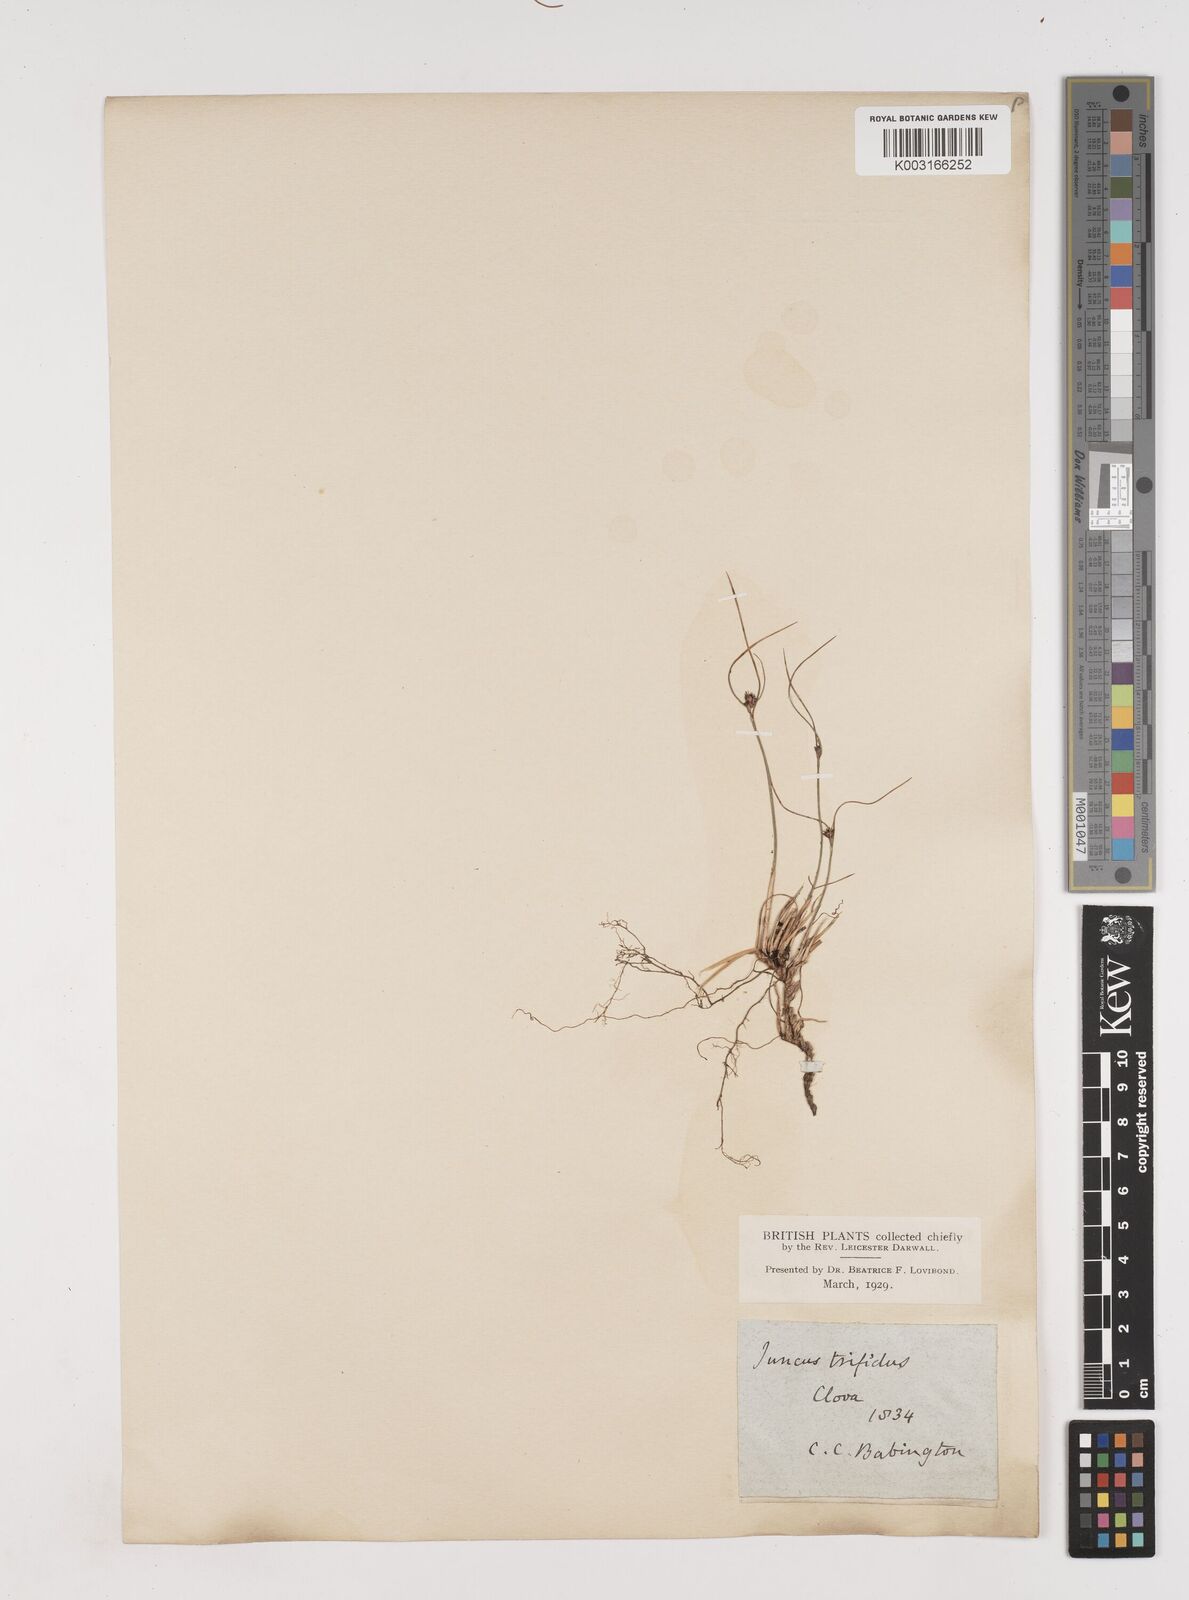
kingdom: Plantae
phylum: Tracheophyta
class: Liliopsida
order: Poales
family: Juncaceae
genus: Oreojuncus
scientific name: Oreojuncus trifidus
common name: Highland rush
